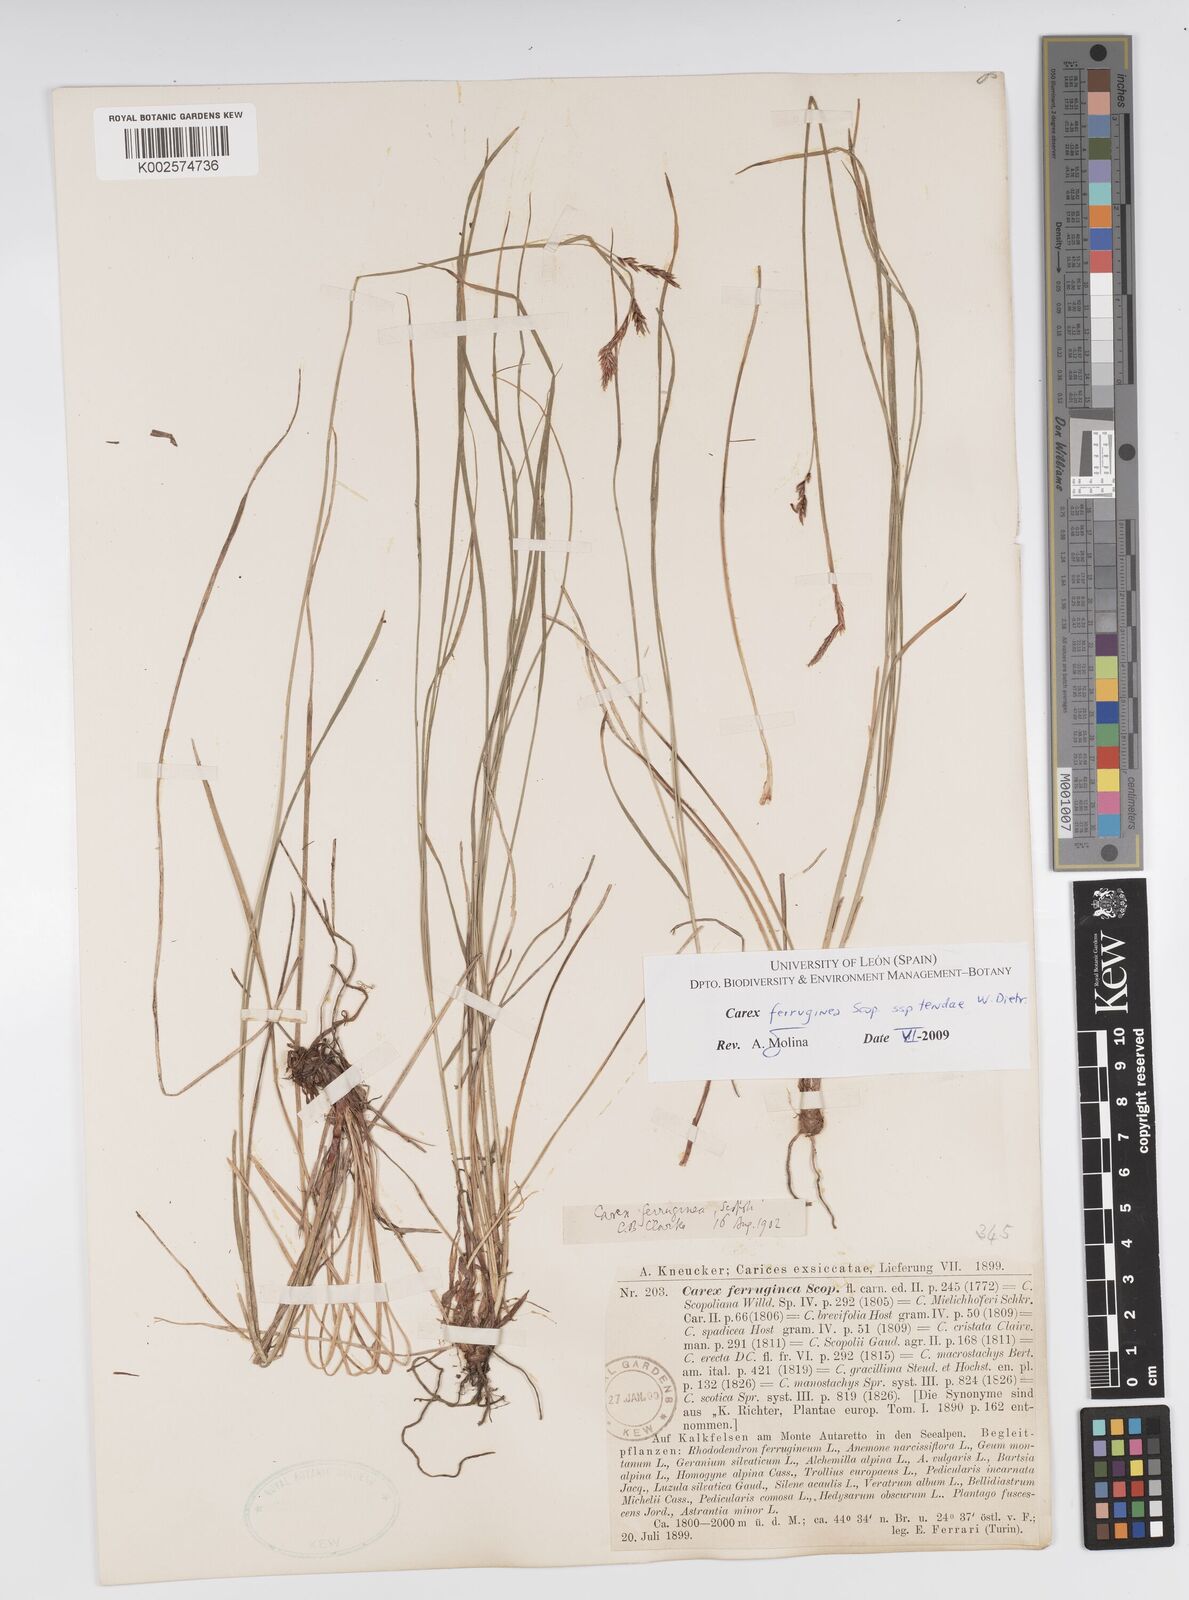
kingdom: Plantae
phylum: Tracheophyta
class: Liliopsida
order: Poales
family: Cyperaceae
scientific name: Cyperaceae
